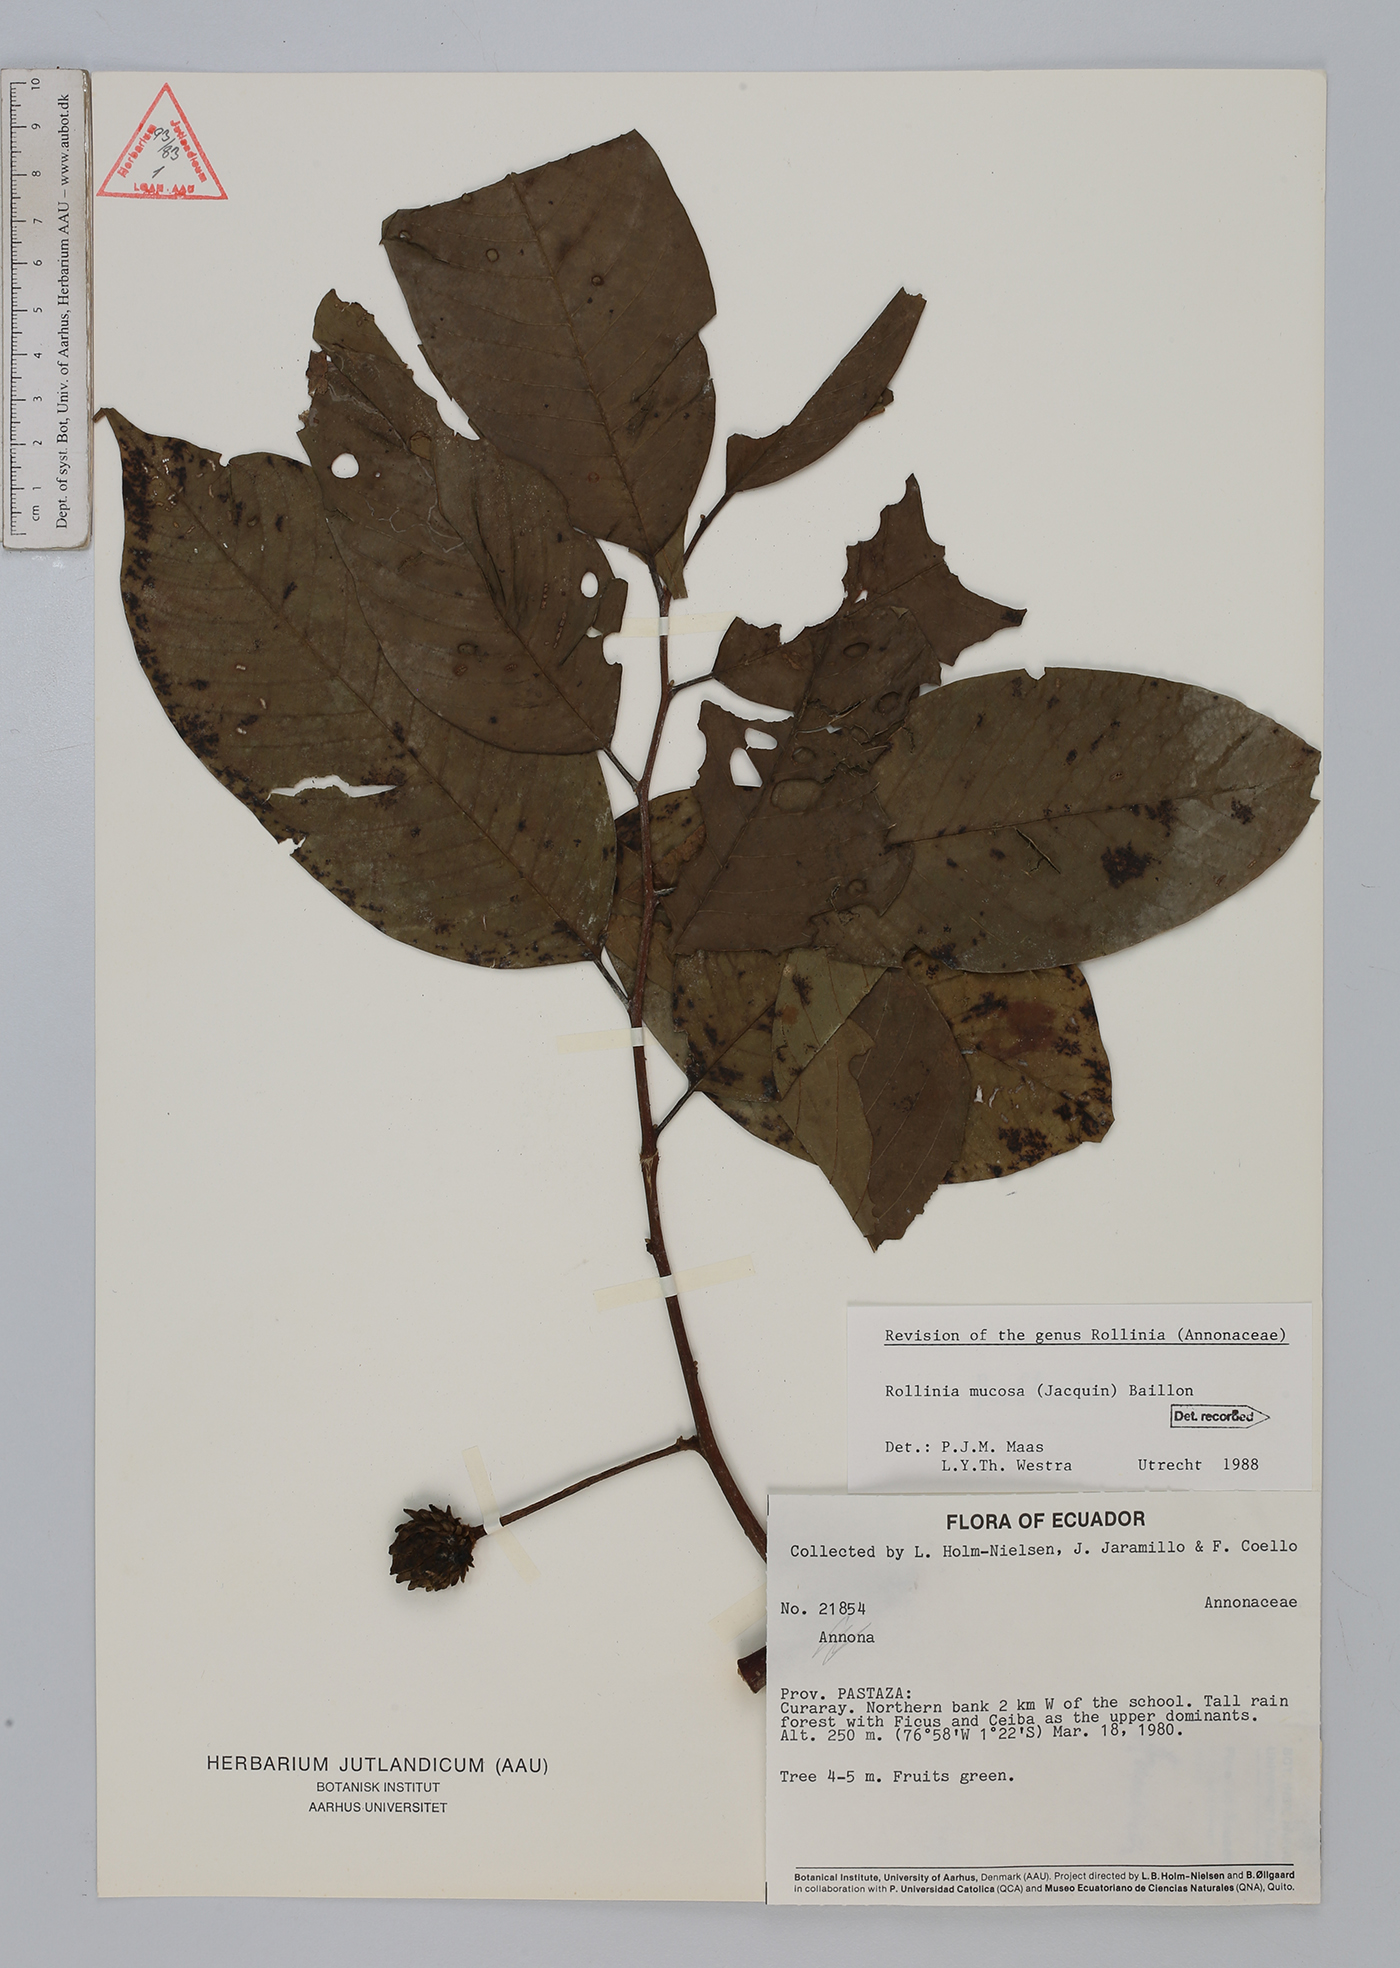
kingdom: Plantae
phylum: Tracheophyta
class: Magnoliopsida
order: Magnoliales
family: Annonaceae
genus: Annona
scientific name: Annona mucosa
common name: Sugar apple
